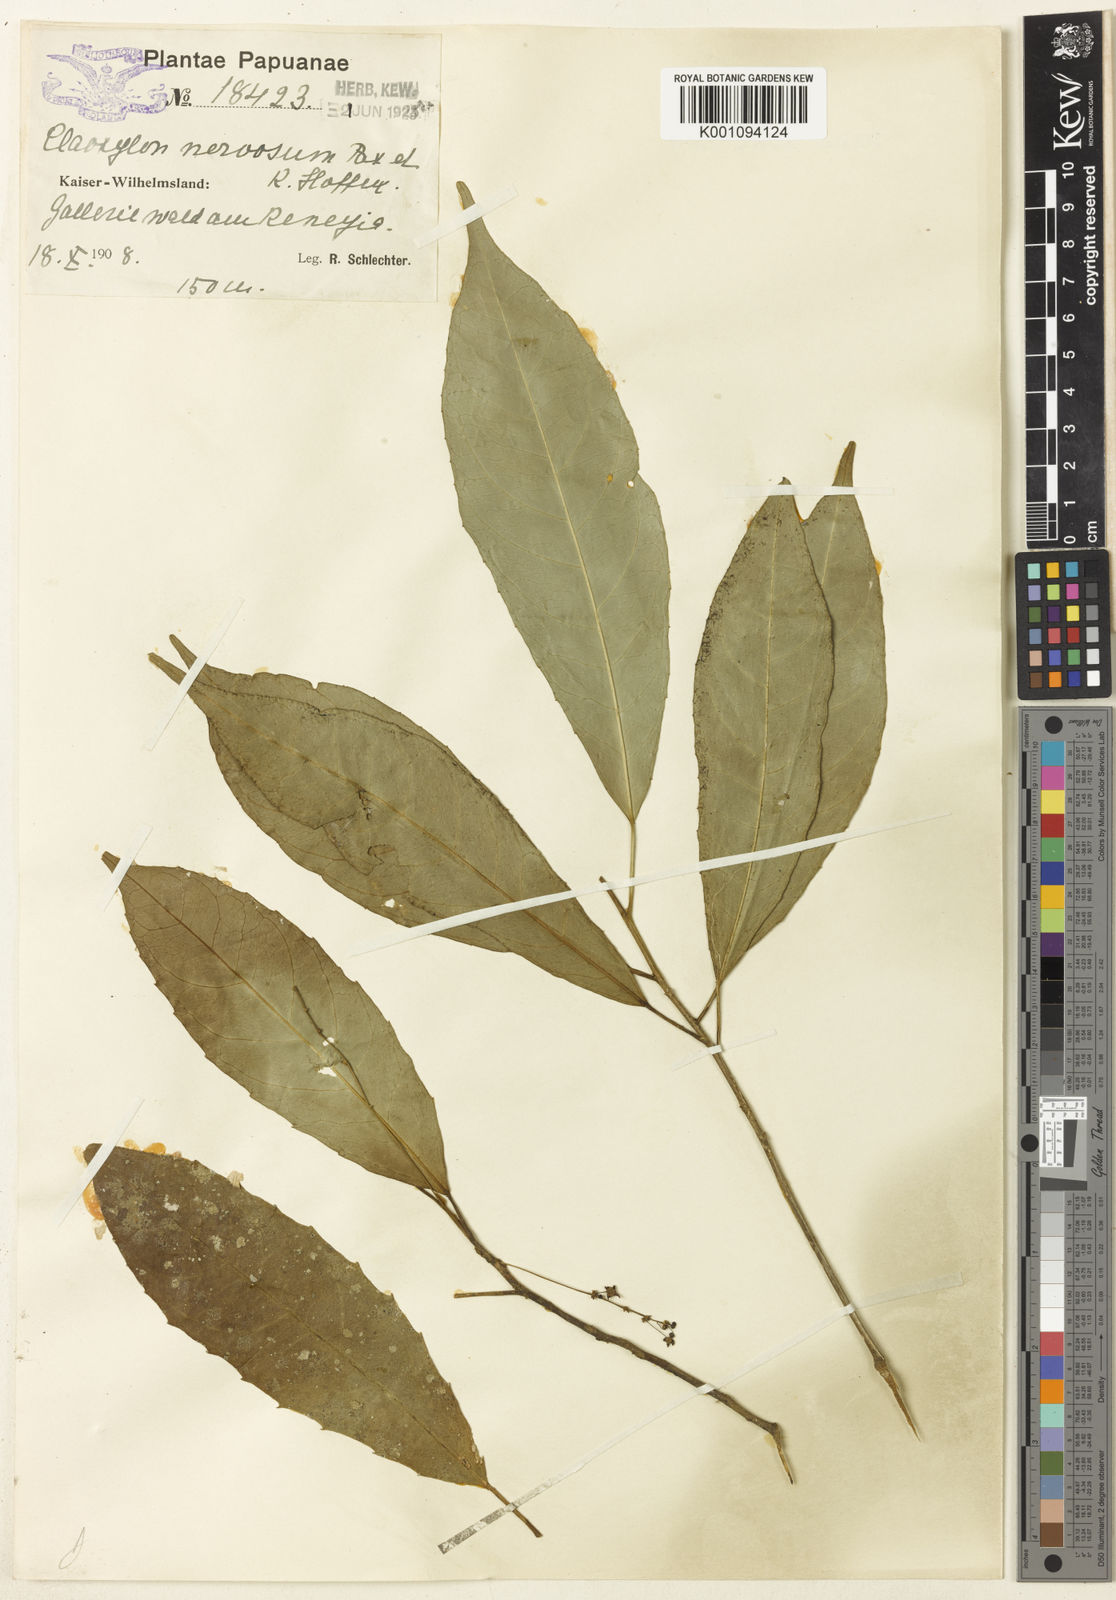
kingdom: Plantae
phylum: Tracheophyta
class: Magnoliopsida
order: Malpighiales
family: Euphorbiaceae
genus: Claoxylon
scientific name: Claoxylon nervosum
